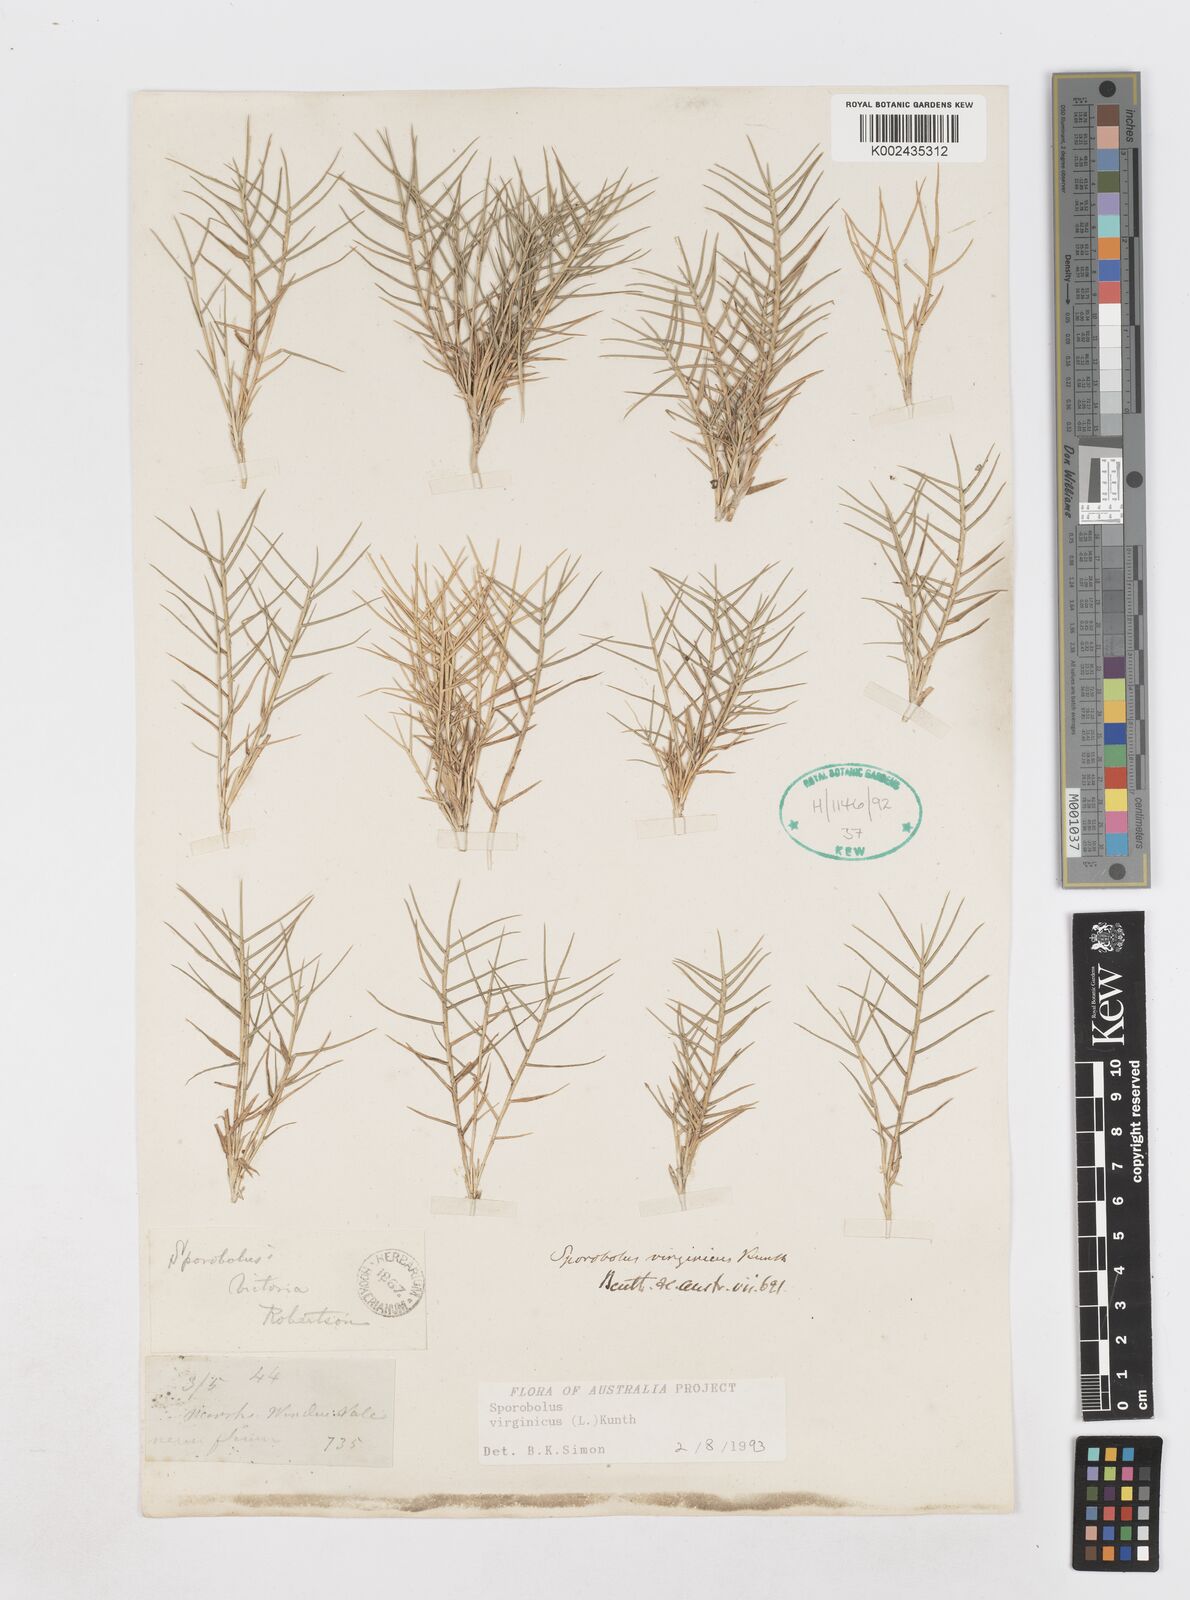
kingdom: Plantae
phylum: Tracheophyta
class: Liliopsida
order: Poales
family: Poaceae
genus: Sporobolus
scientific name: Sporobolus virginicus
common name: Beach dropseed
